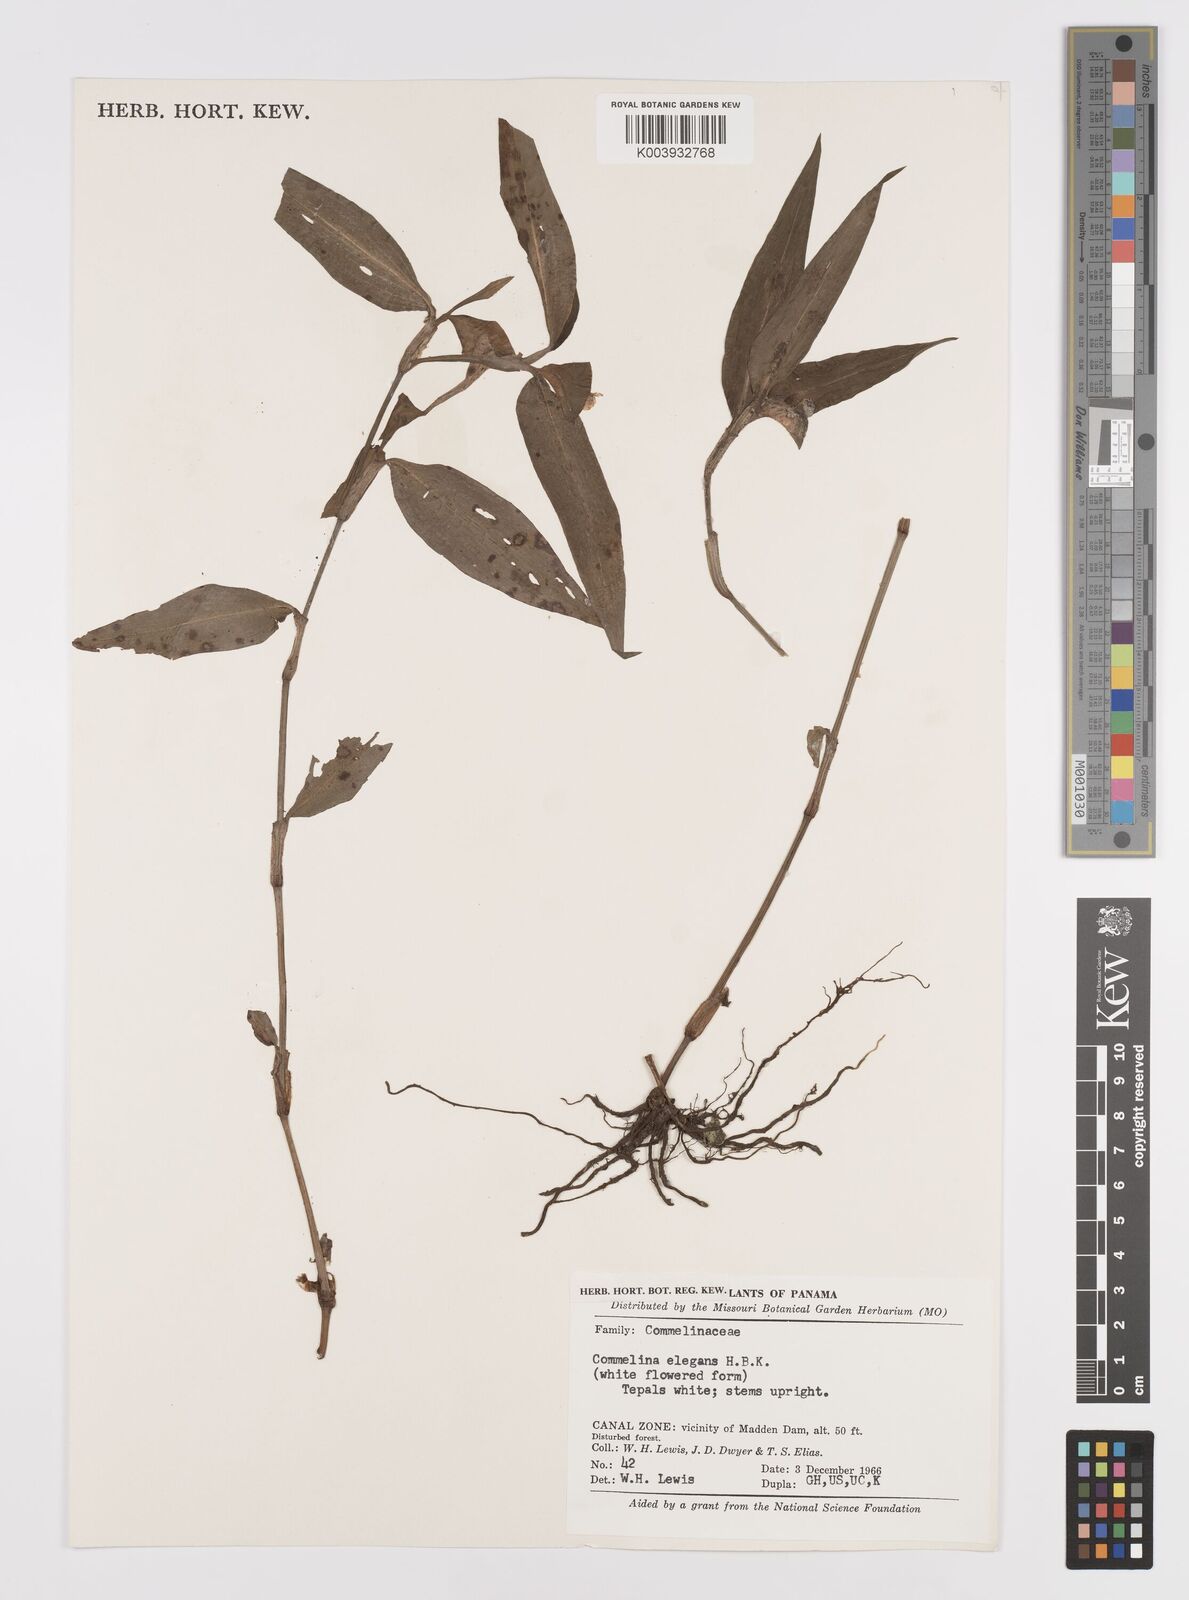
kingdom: Plantae
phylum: Tracheophyta
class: Liliopsida
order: Commelinales
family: Commelinaceae
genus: Commelina
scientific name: Commelina virginica
